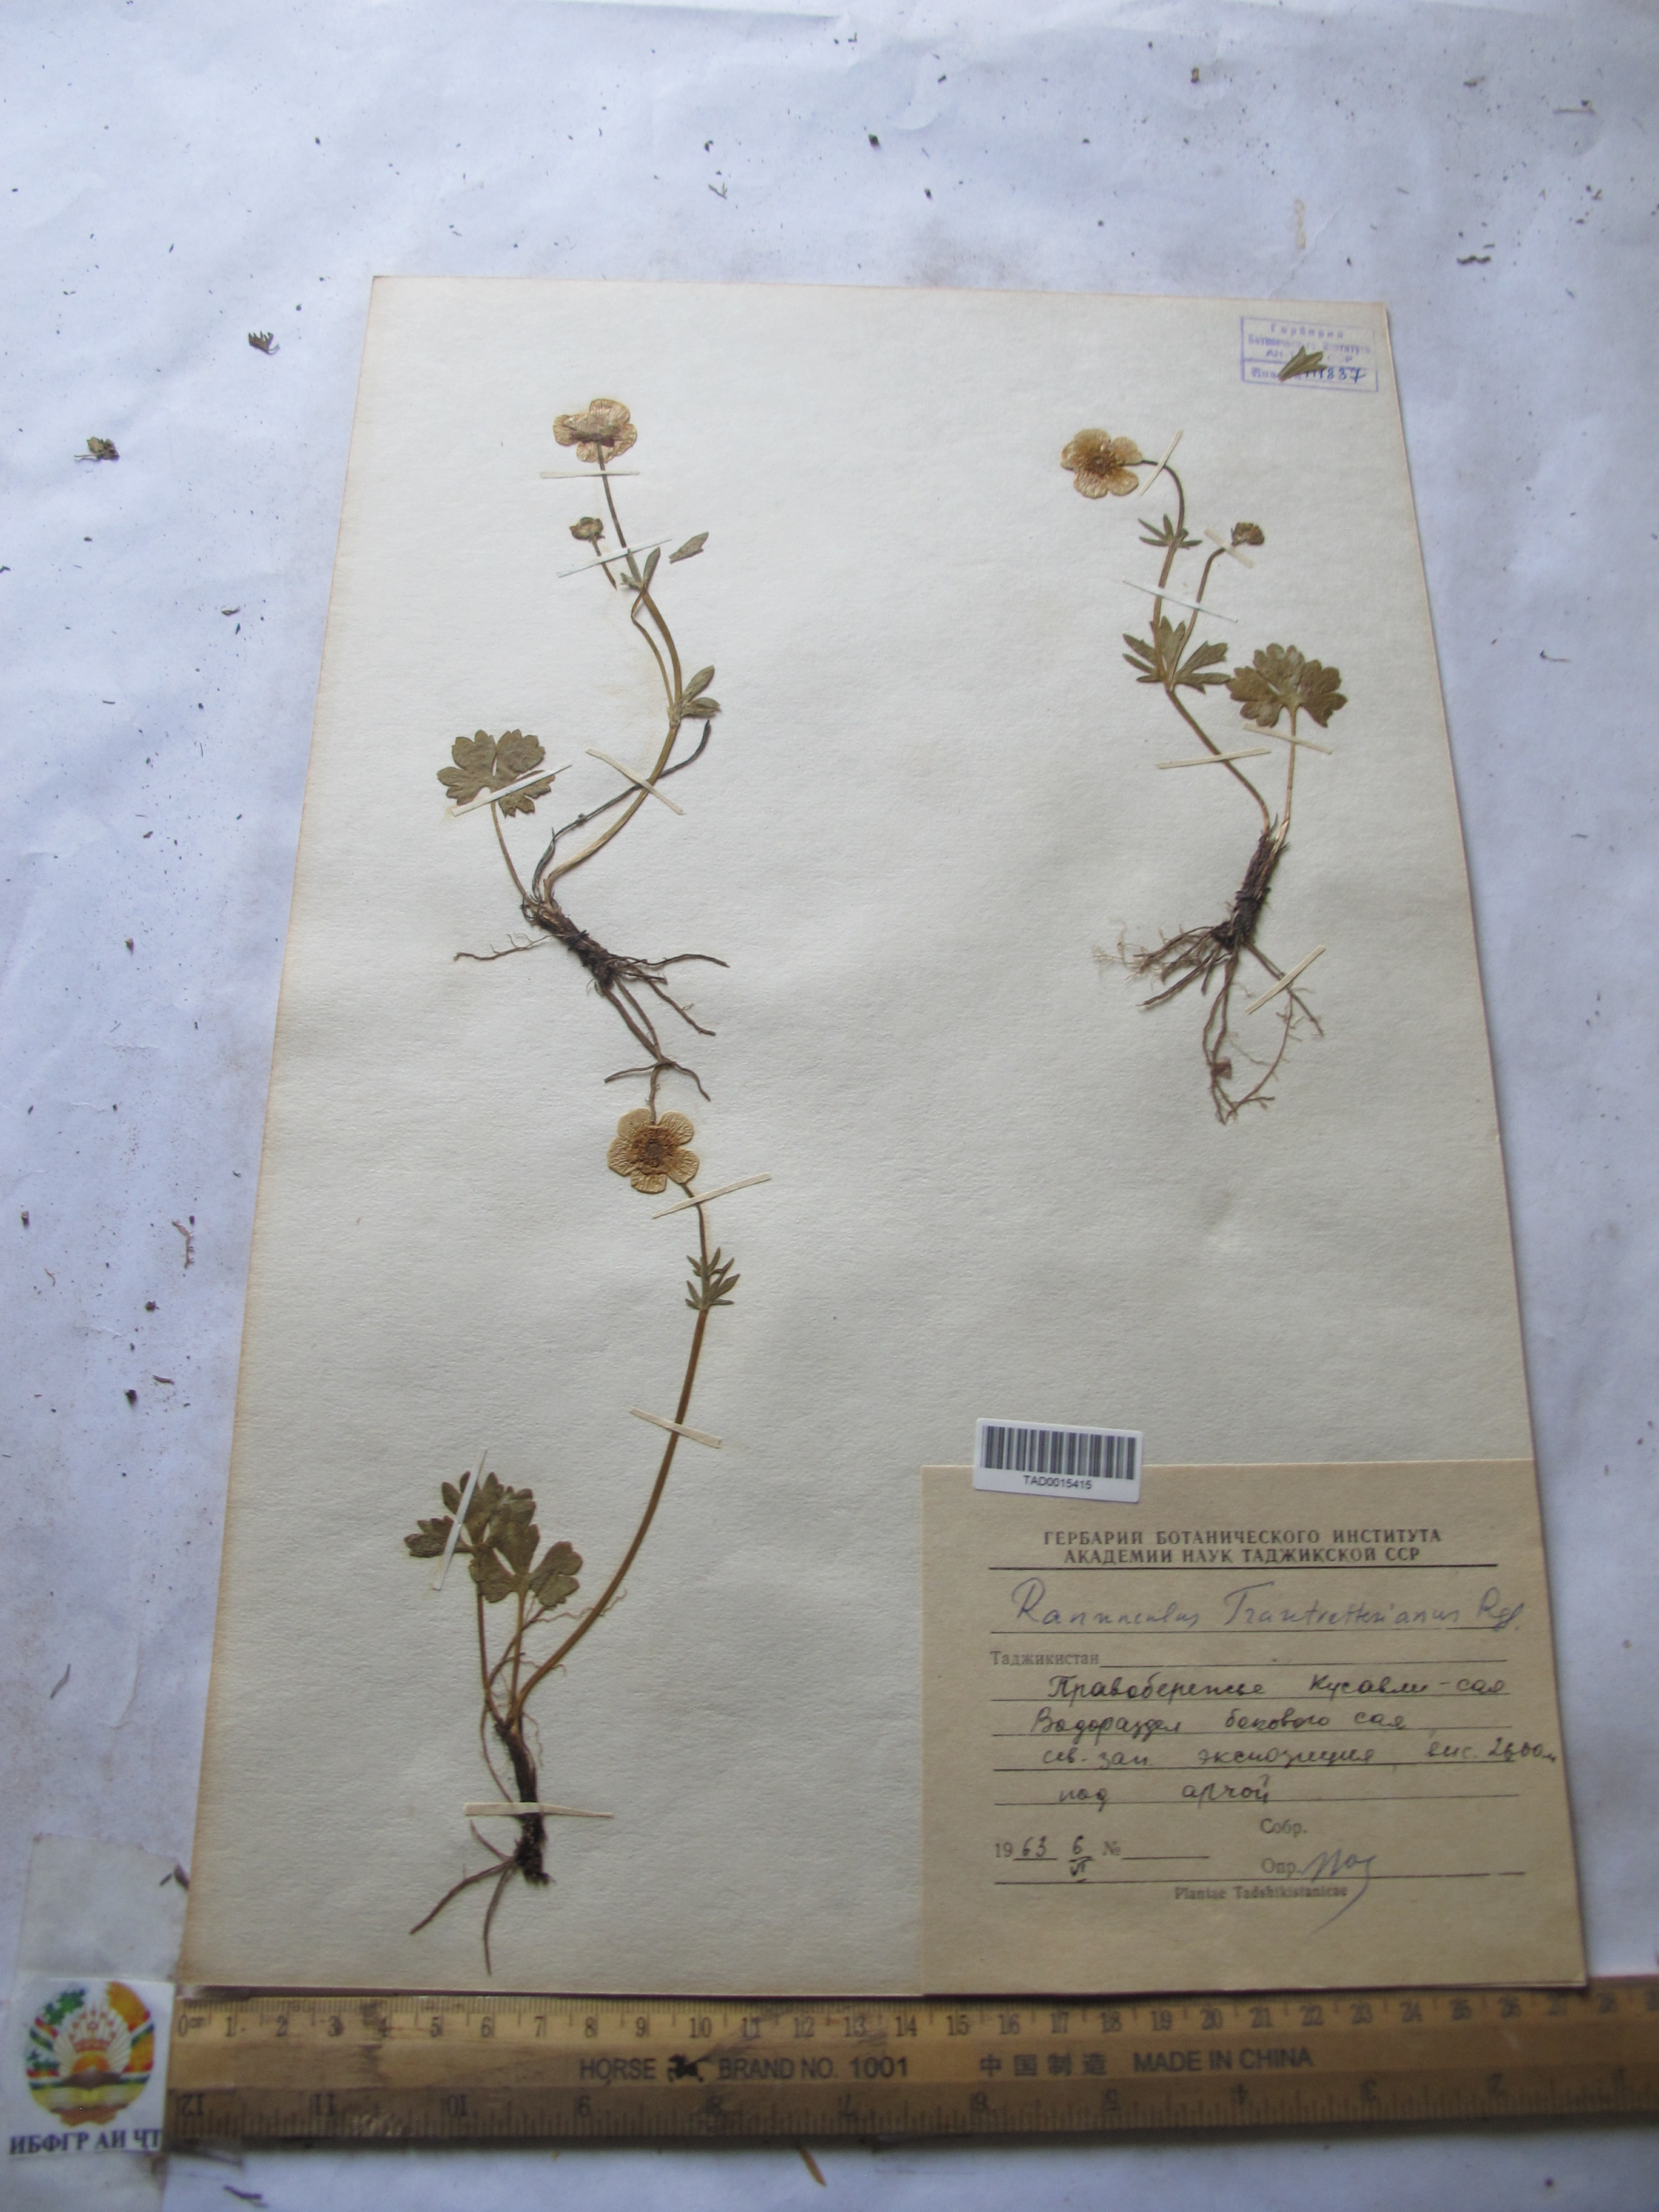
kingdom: Plantae
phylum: Tracheophyta
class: Magnoliopsida
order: Ranunculales
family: Ranunculaceae
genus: Ranunculus
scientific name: Ranunculus songaricus
